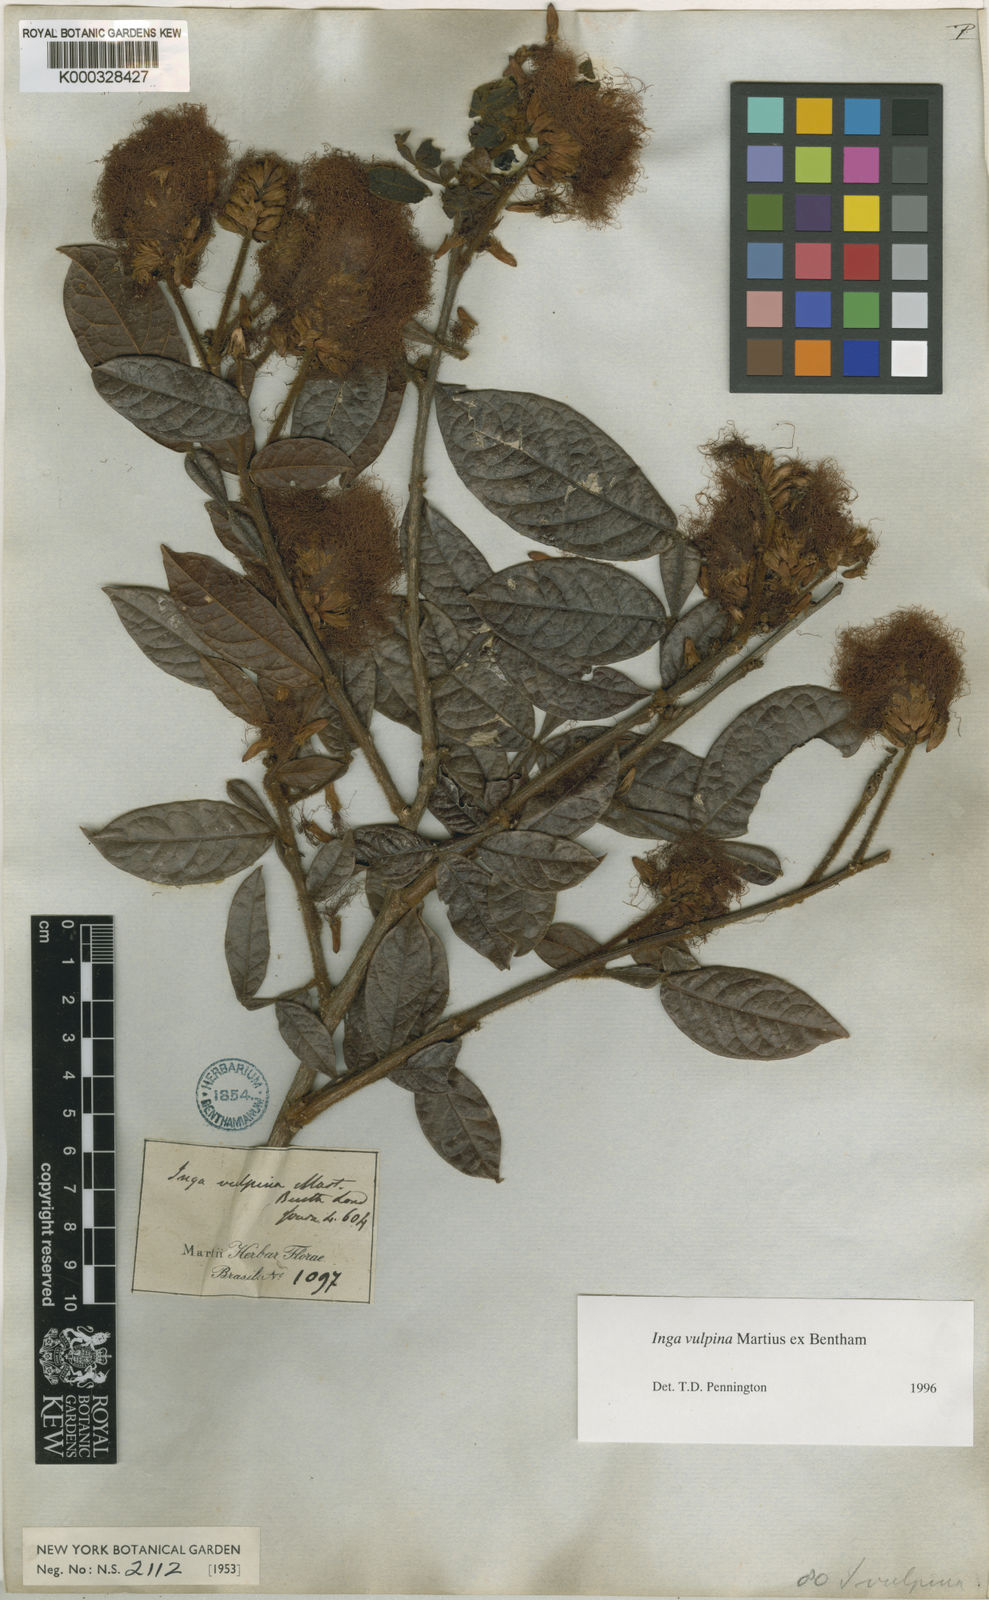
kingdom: Plantae
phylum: Tracheophyta
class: Magnoliopsida
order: Fabales
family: Fabaceae
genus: Inga
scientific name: Inga vulpina
